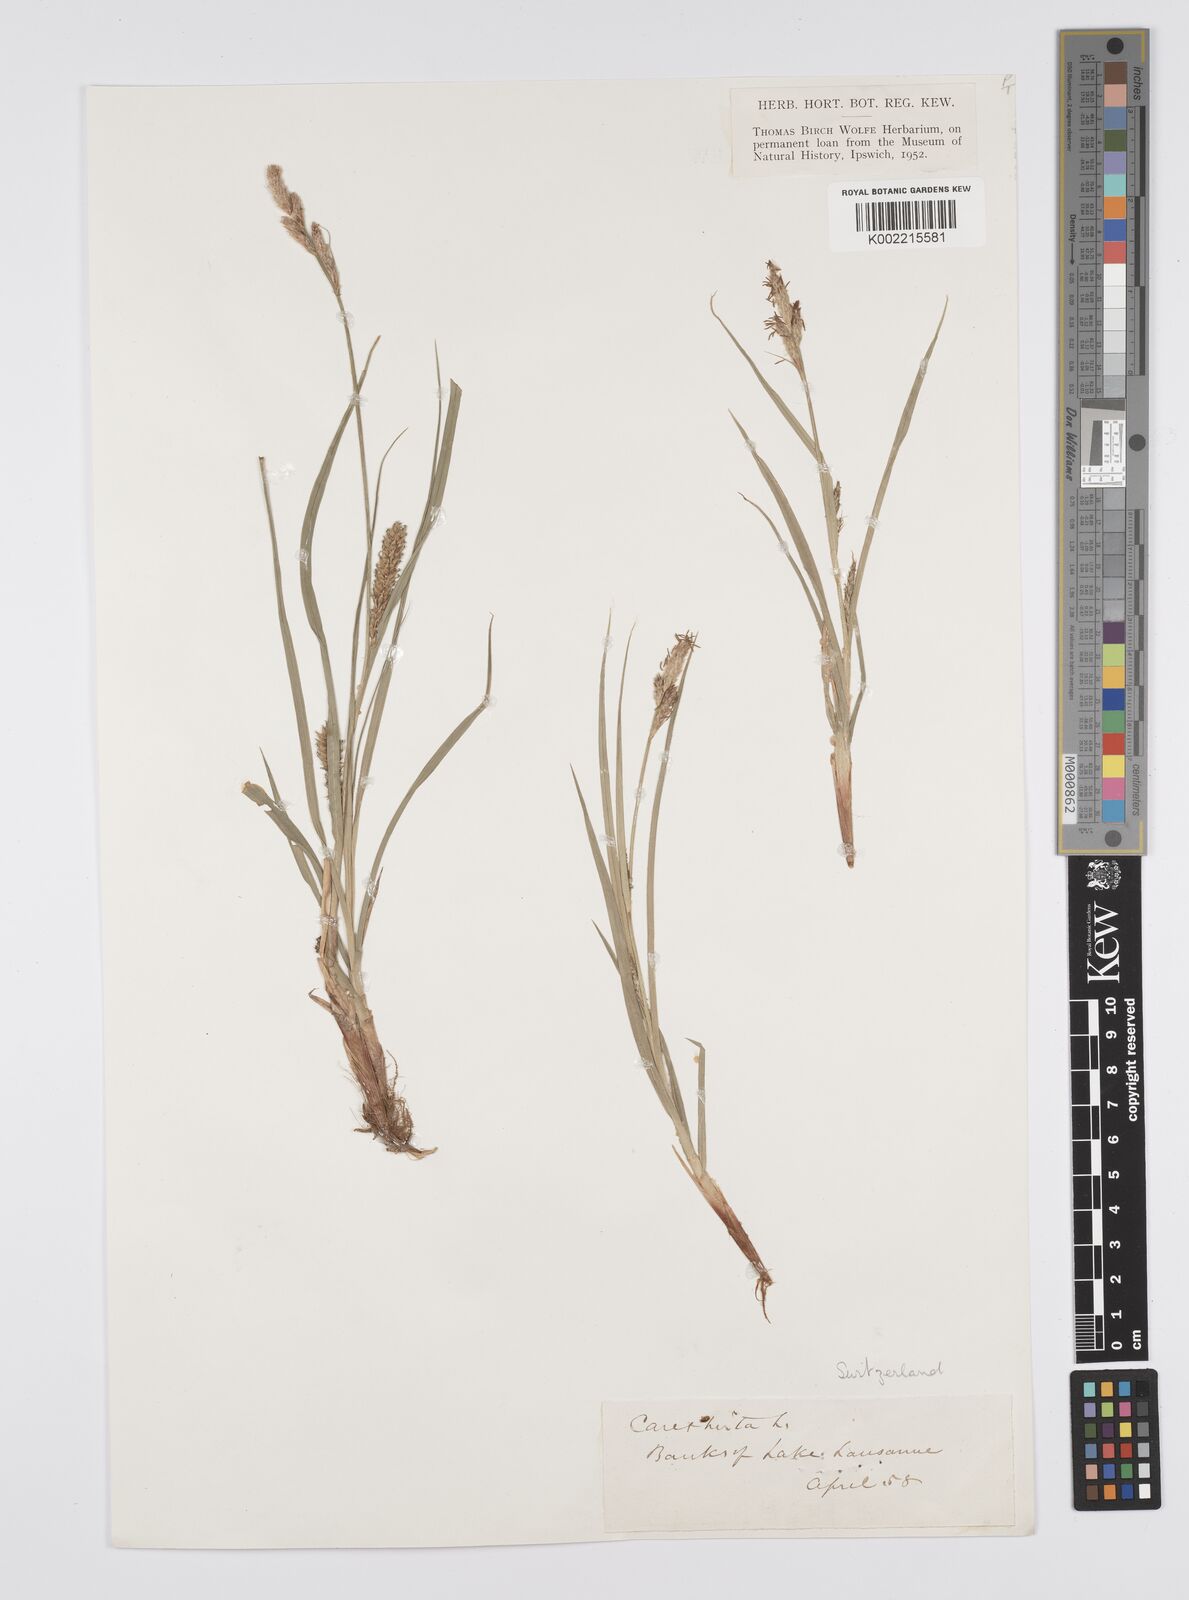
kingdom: Plantae
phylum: Tracheophyta
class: Liliopsida
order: Poales
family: Cyperaceae
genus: Carex
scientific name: Carex hirta
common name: Hairy sedge
